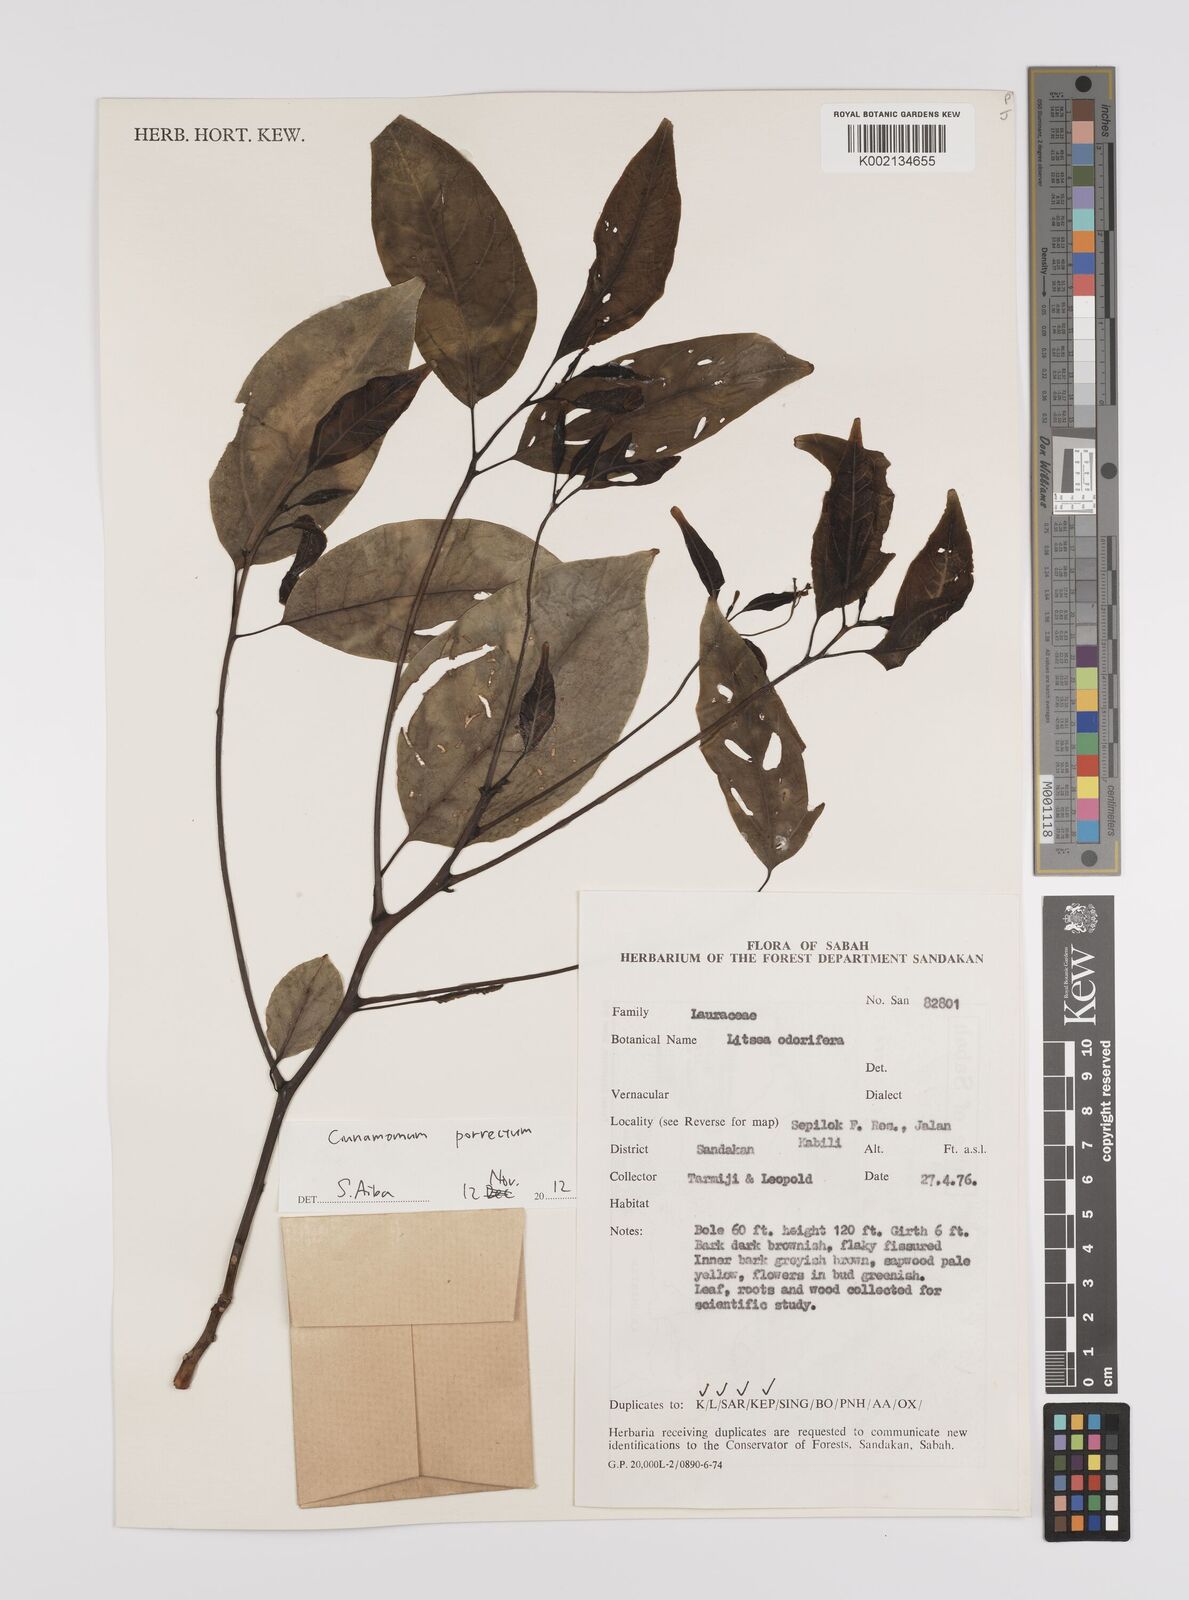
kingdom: Plantae
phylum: Tracheophyta
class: Magnoliopsida
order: Laurales
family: Lauraceae
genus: Cinnamomum
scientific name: Cinnamomum parthenoxylon
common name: Martaban camphor wood
